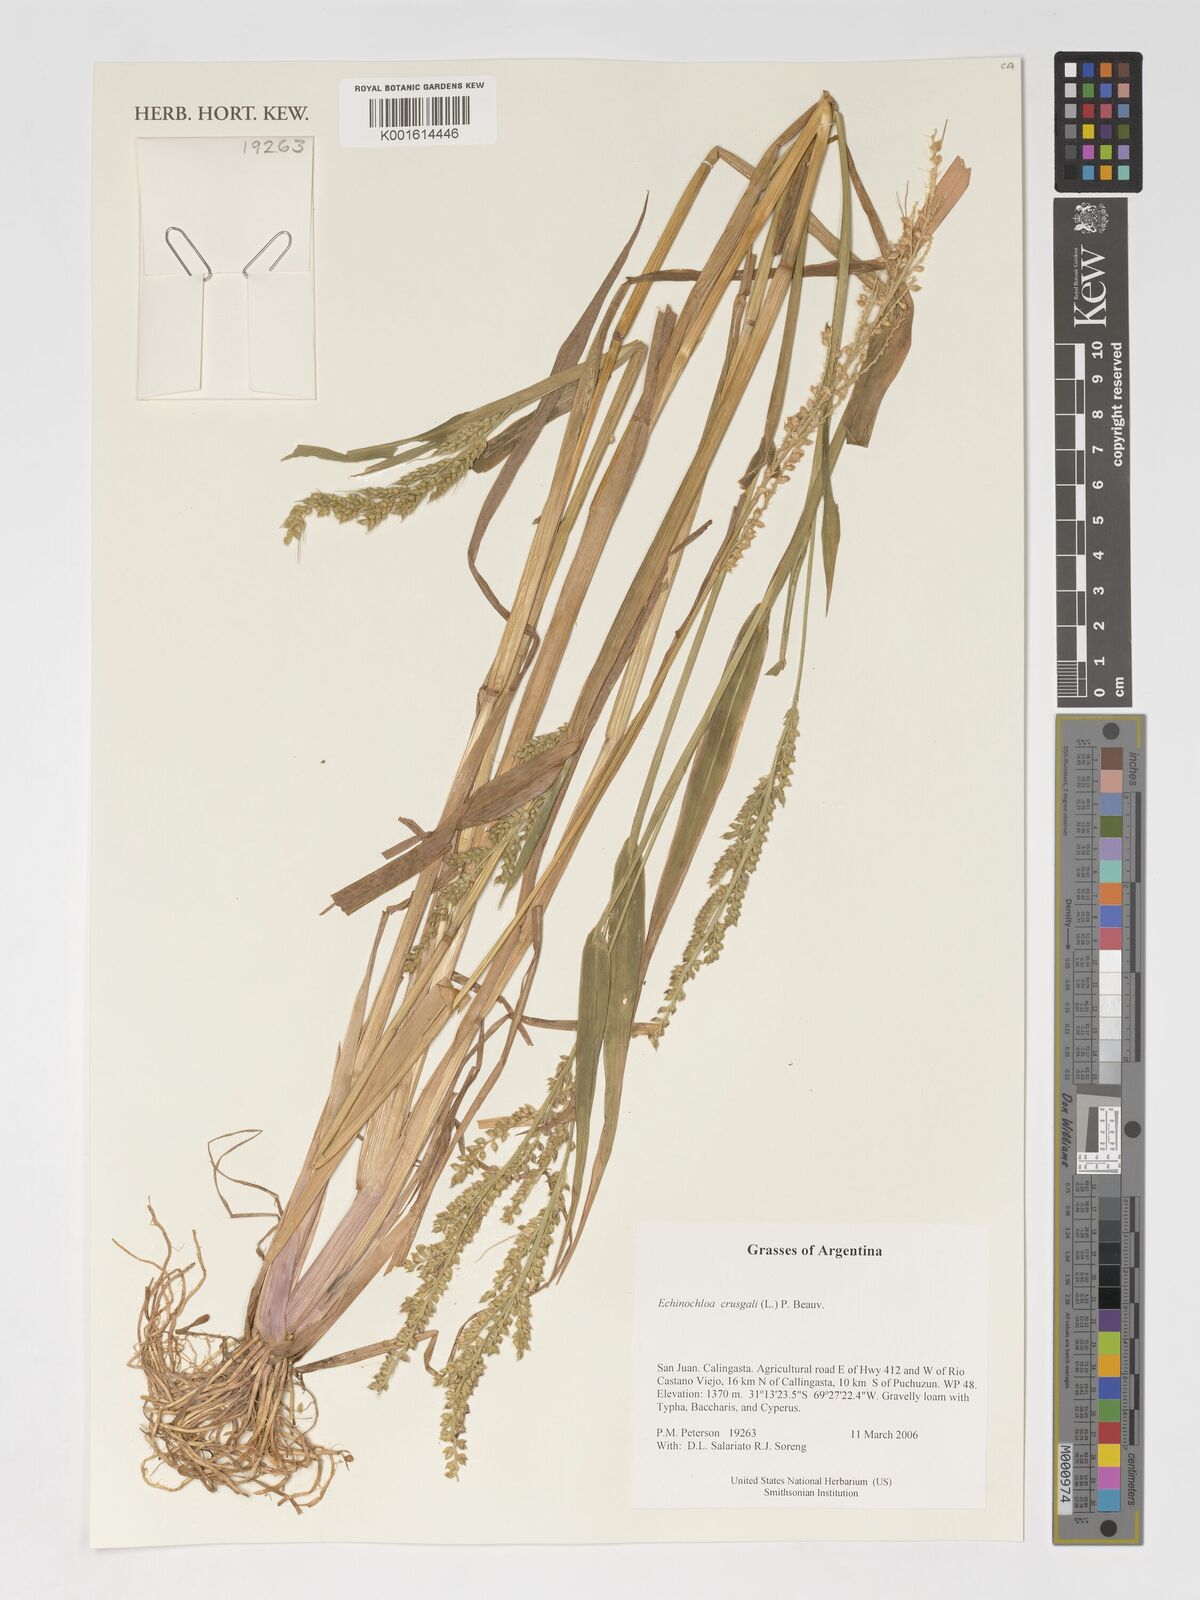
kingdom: Plantae
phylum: Tracheophyta
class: Liliopsida
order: Poales
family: Poaceae
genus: Echinochloa
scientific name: Echinochloa crus-galli
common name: Cockspur
